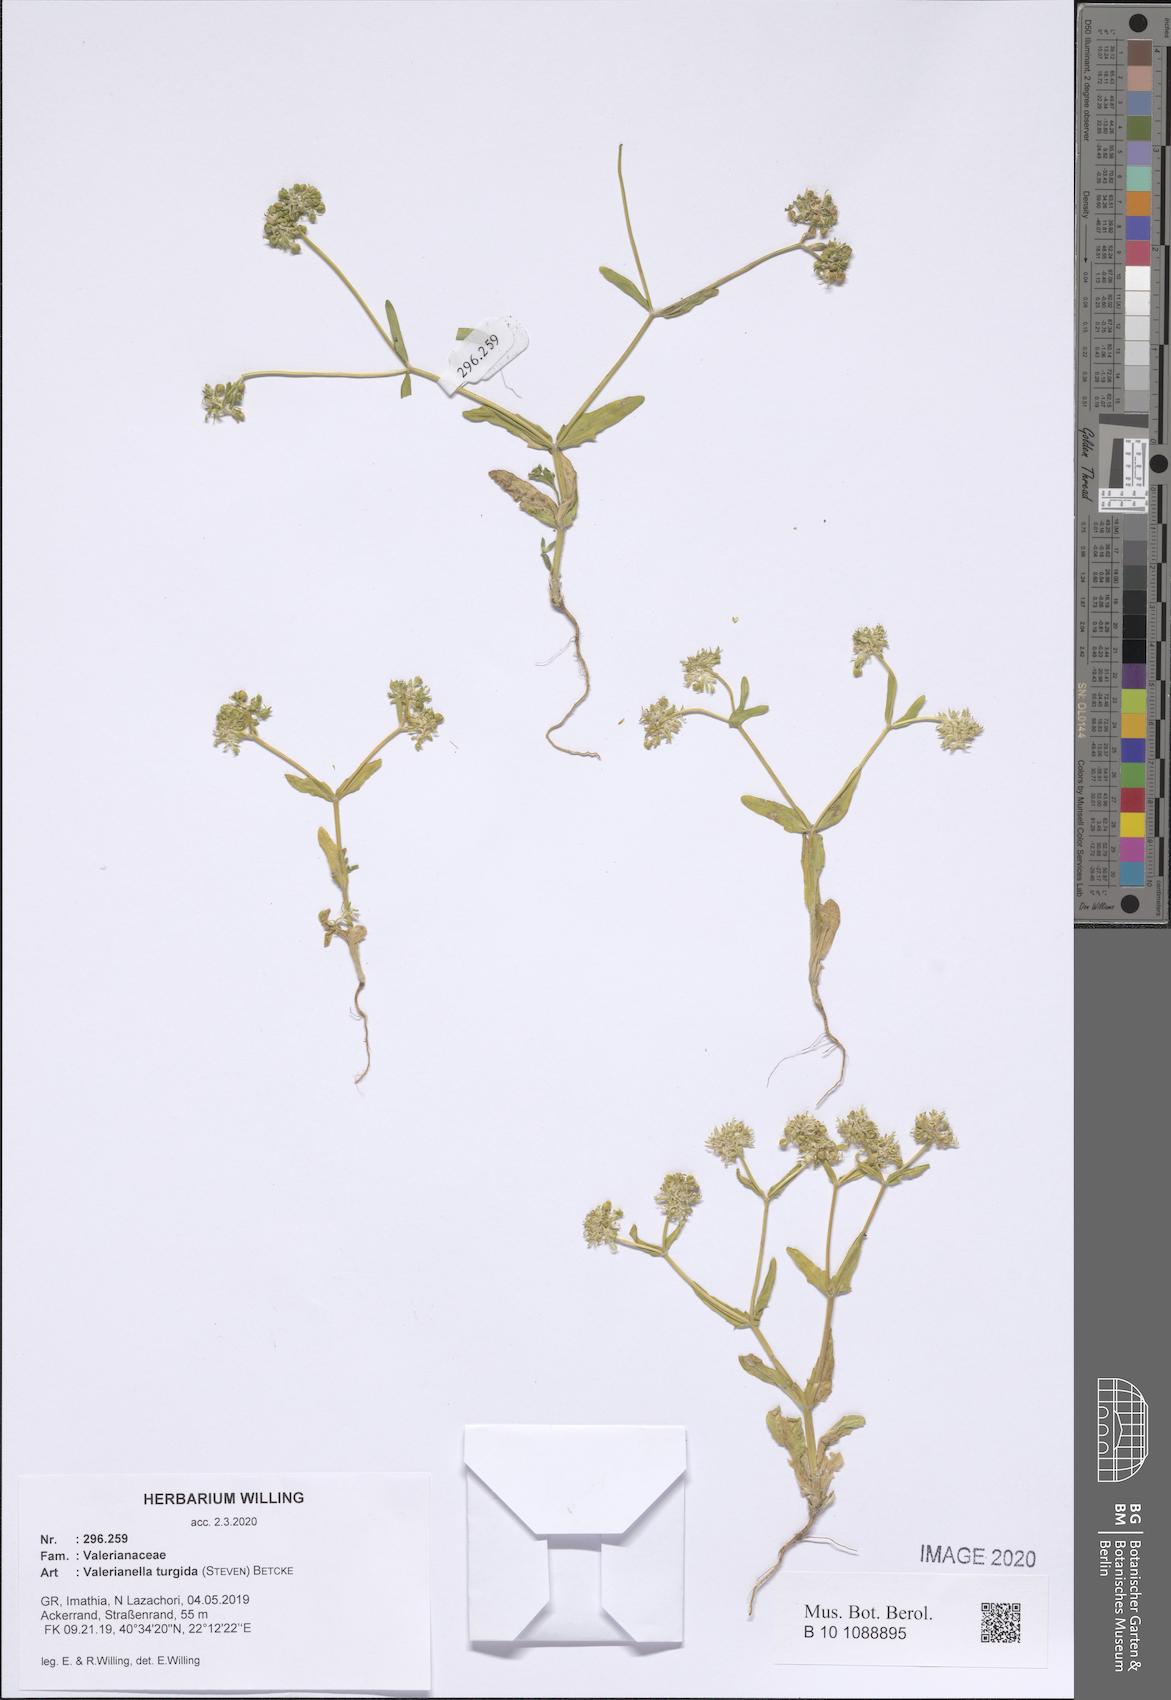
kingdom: Plantae
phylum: Tracheophyta
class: Magnoliopsida
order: Dipsacales
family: Caprifoliaceae
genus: Valerianella
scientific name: Valerianella turgida
